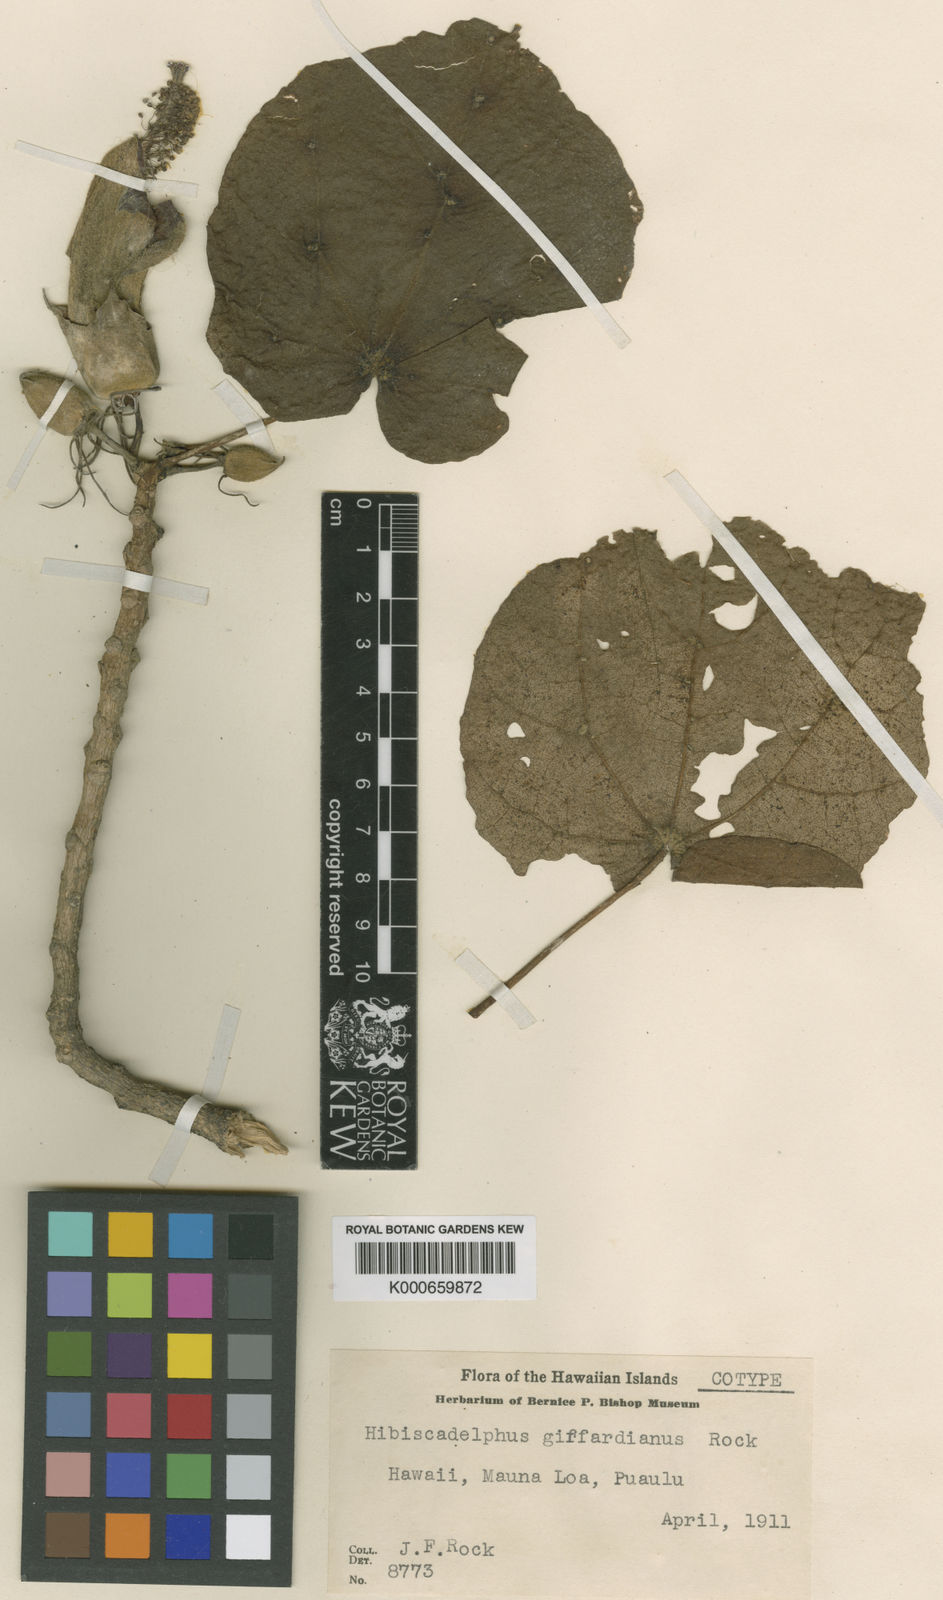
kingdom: Plantae
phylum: Tracheophyta
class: Magnoliopsida
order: Malvales
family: Malvaceae
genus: Hibiscadelphus
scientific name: Hibiscadelphus giffardianus
